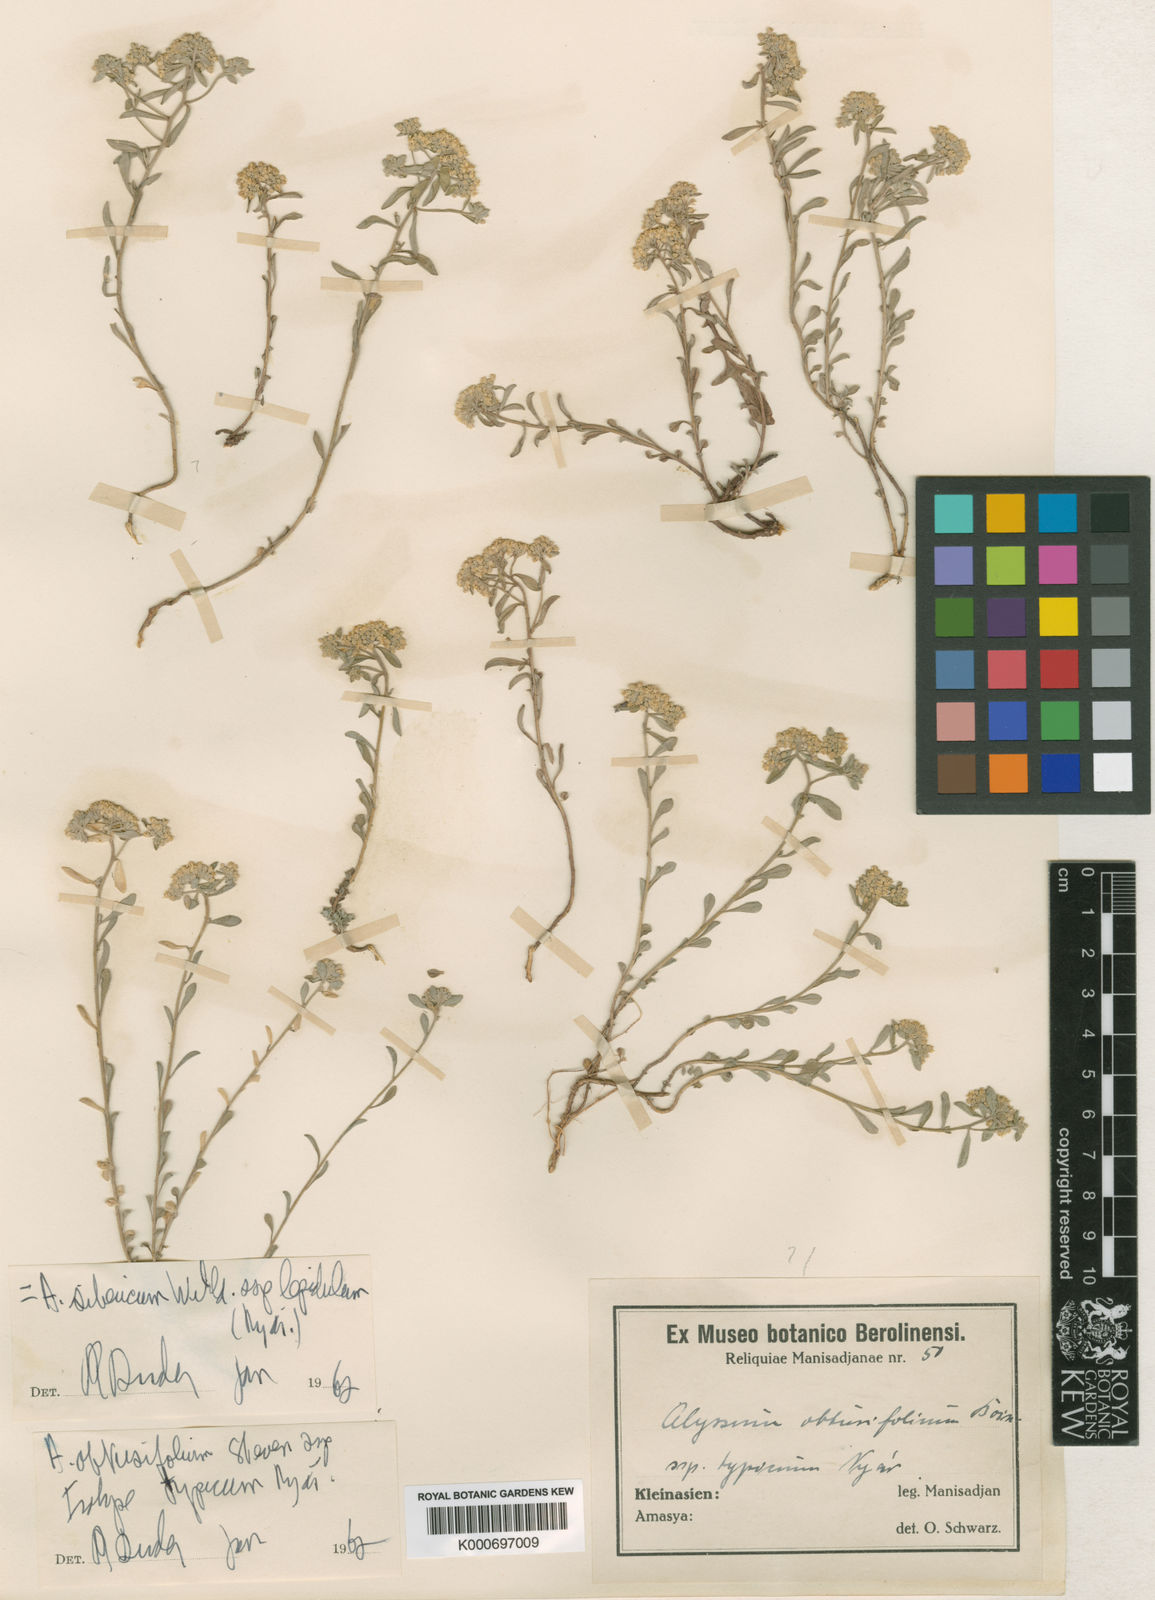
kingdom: Plantae
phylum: Tracheophyta
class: Magnoliopsida
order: Brassicales
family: Brassicaceae
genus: Alyssum
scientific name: Alyssum
